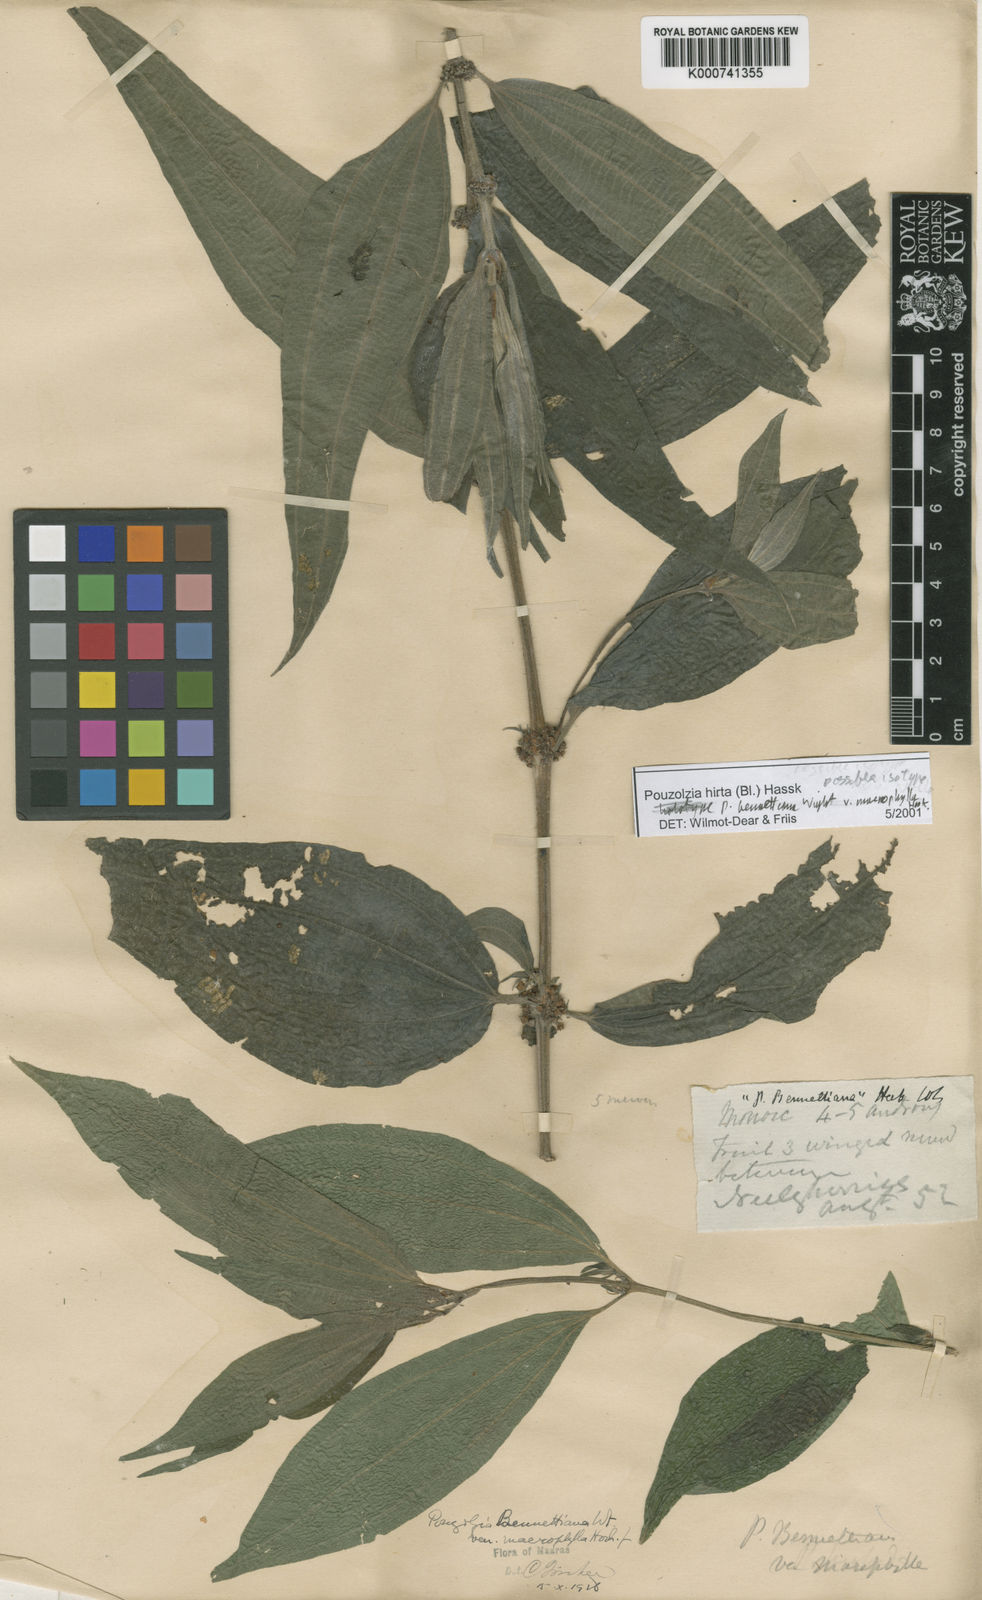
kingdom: Plantae
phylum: Tracheophyta
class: Magnoliopsida
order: Rosales
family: Urticaceae
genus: Gonostegia
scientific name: Gonostegia triandra
